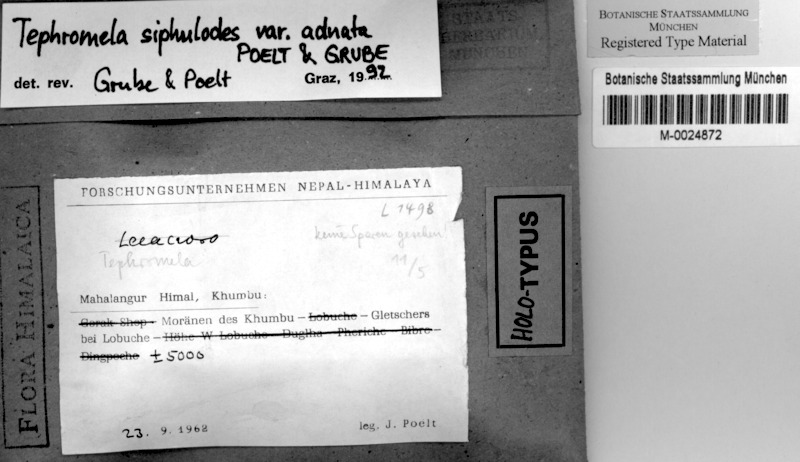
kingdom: Fungi
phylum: Ascomycota
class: Lecanoromycetes
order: Lecanorales
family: Tephromelataceae
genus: Tephromela
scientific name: Tephromela siphulodes
